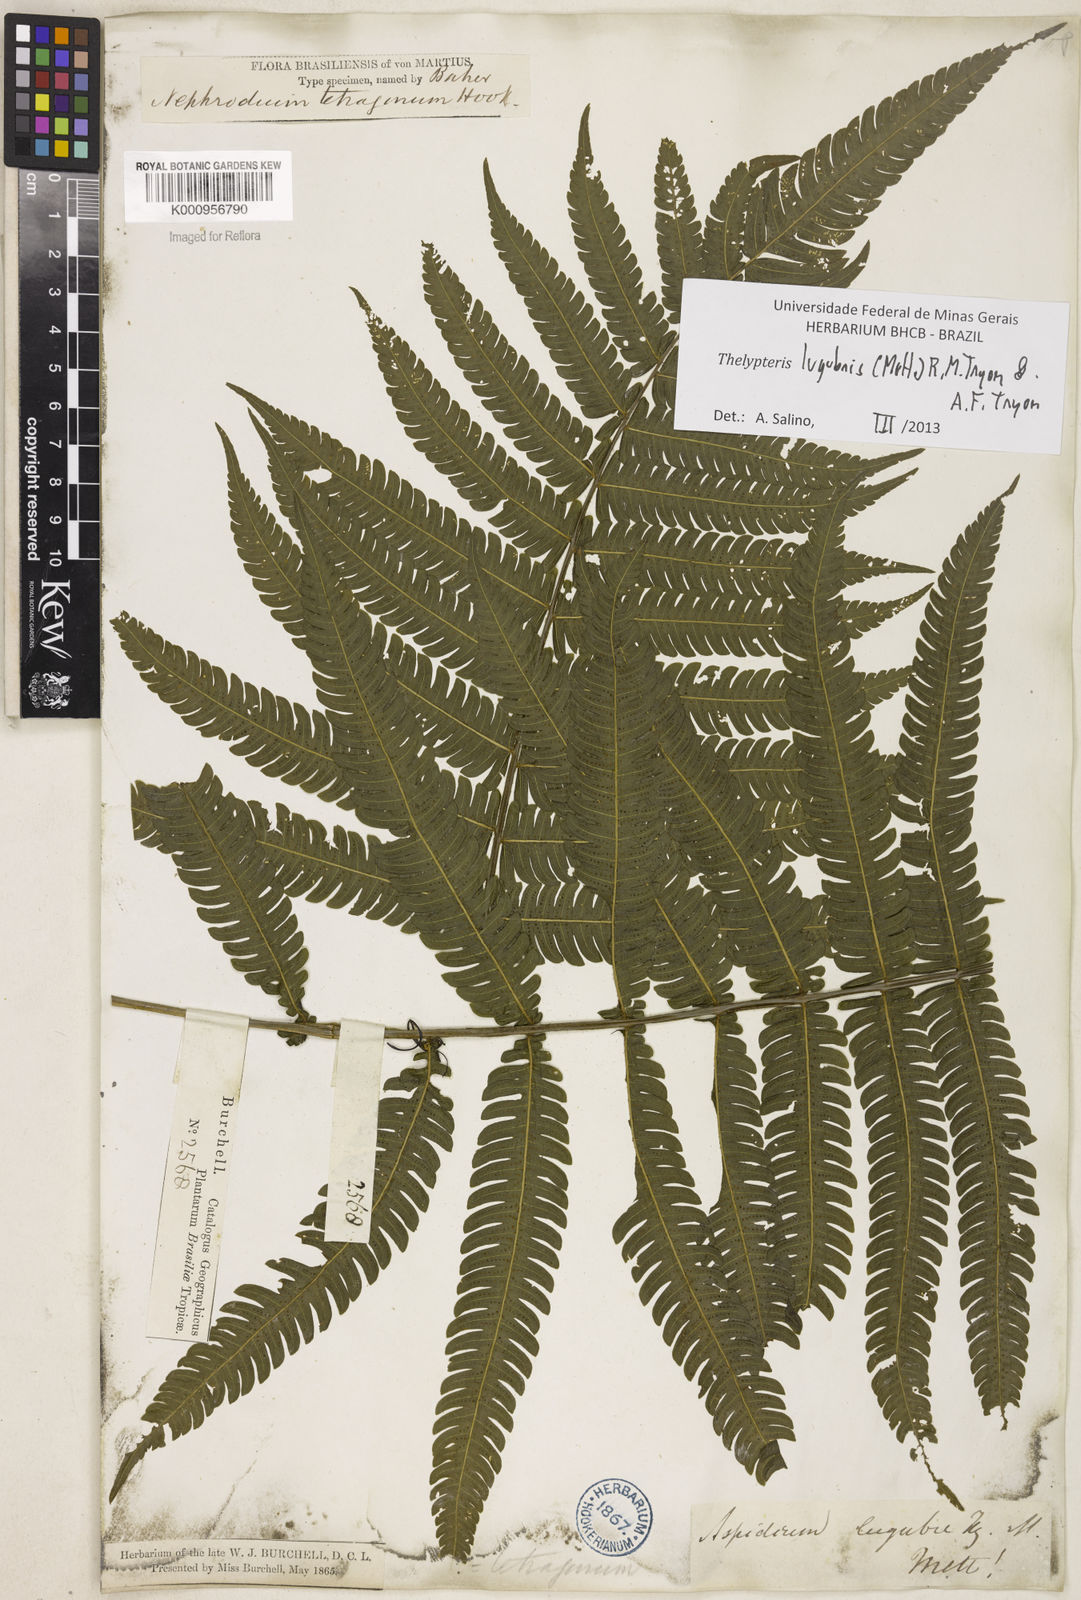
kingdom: Plantae
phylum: Tracheophyta
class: Polypodiopsida
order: Polypodiales
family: Thelypteridaceae
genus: Goniopteris
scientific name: Goniopteris lugubris
